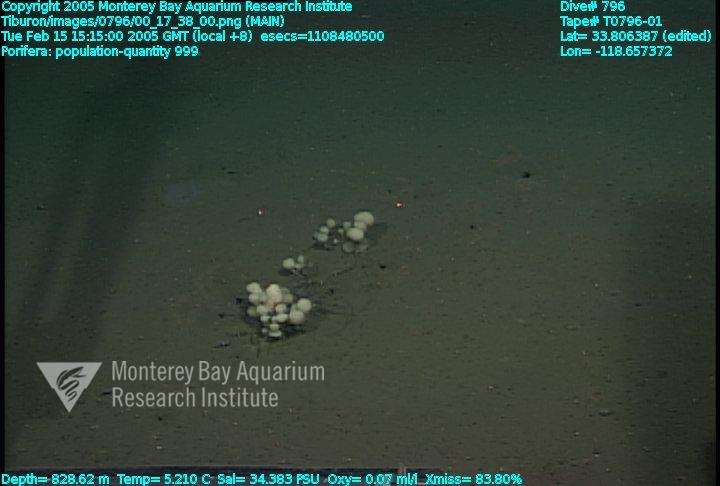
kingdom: Animalia
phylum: Porifera
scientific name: Porifera
